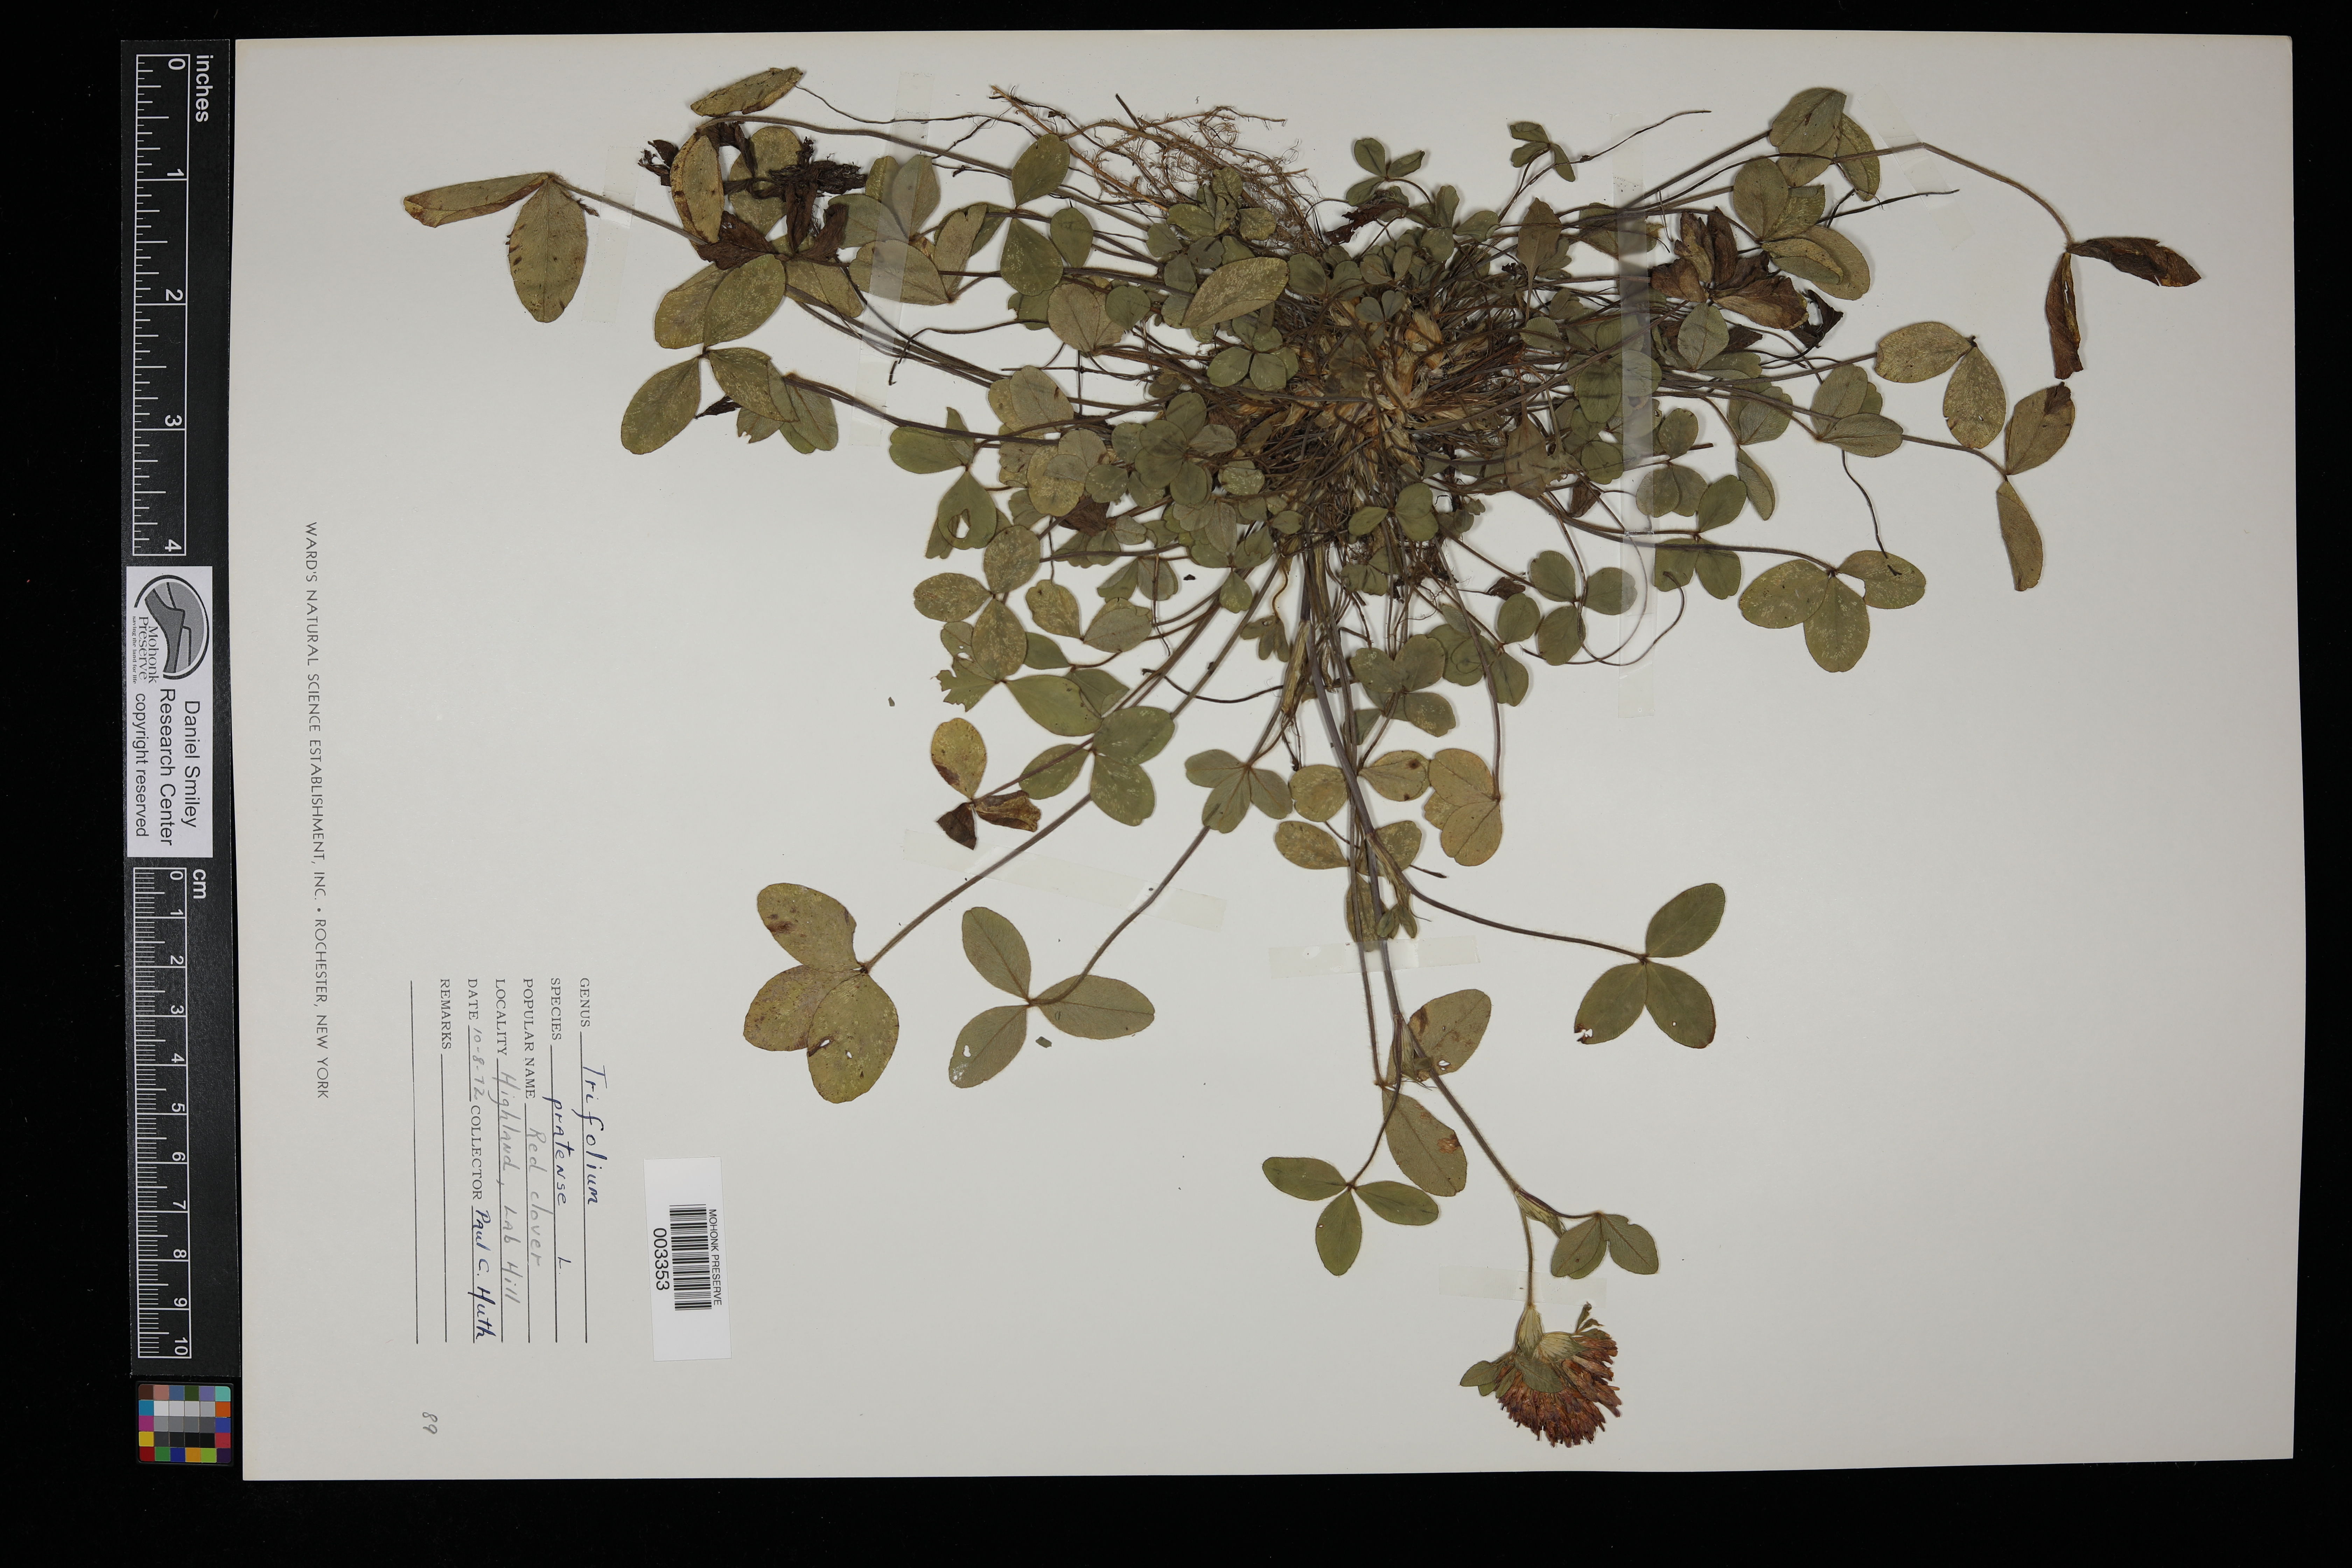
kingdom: Plantae
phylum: Tracheophyta
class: Magnoliopsida
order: Fabales
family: Fabaceae
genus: Trifolium
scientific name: Trifolium pratense
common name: Red clover
